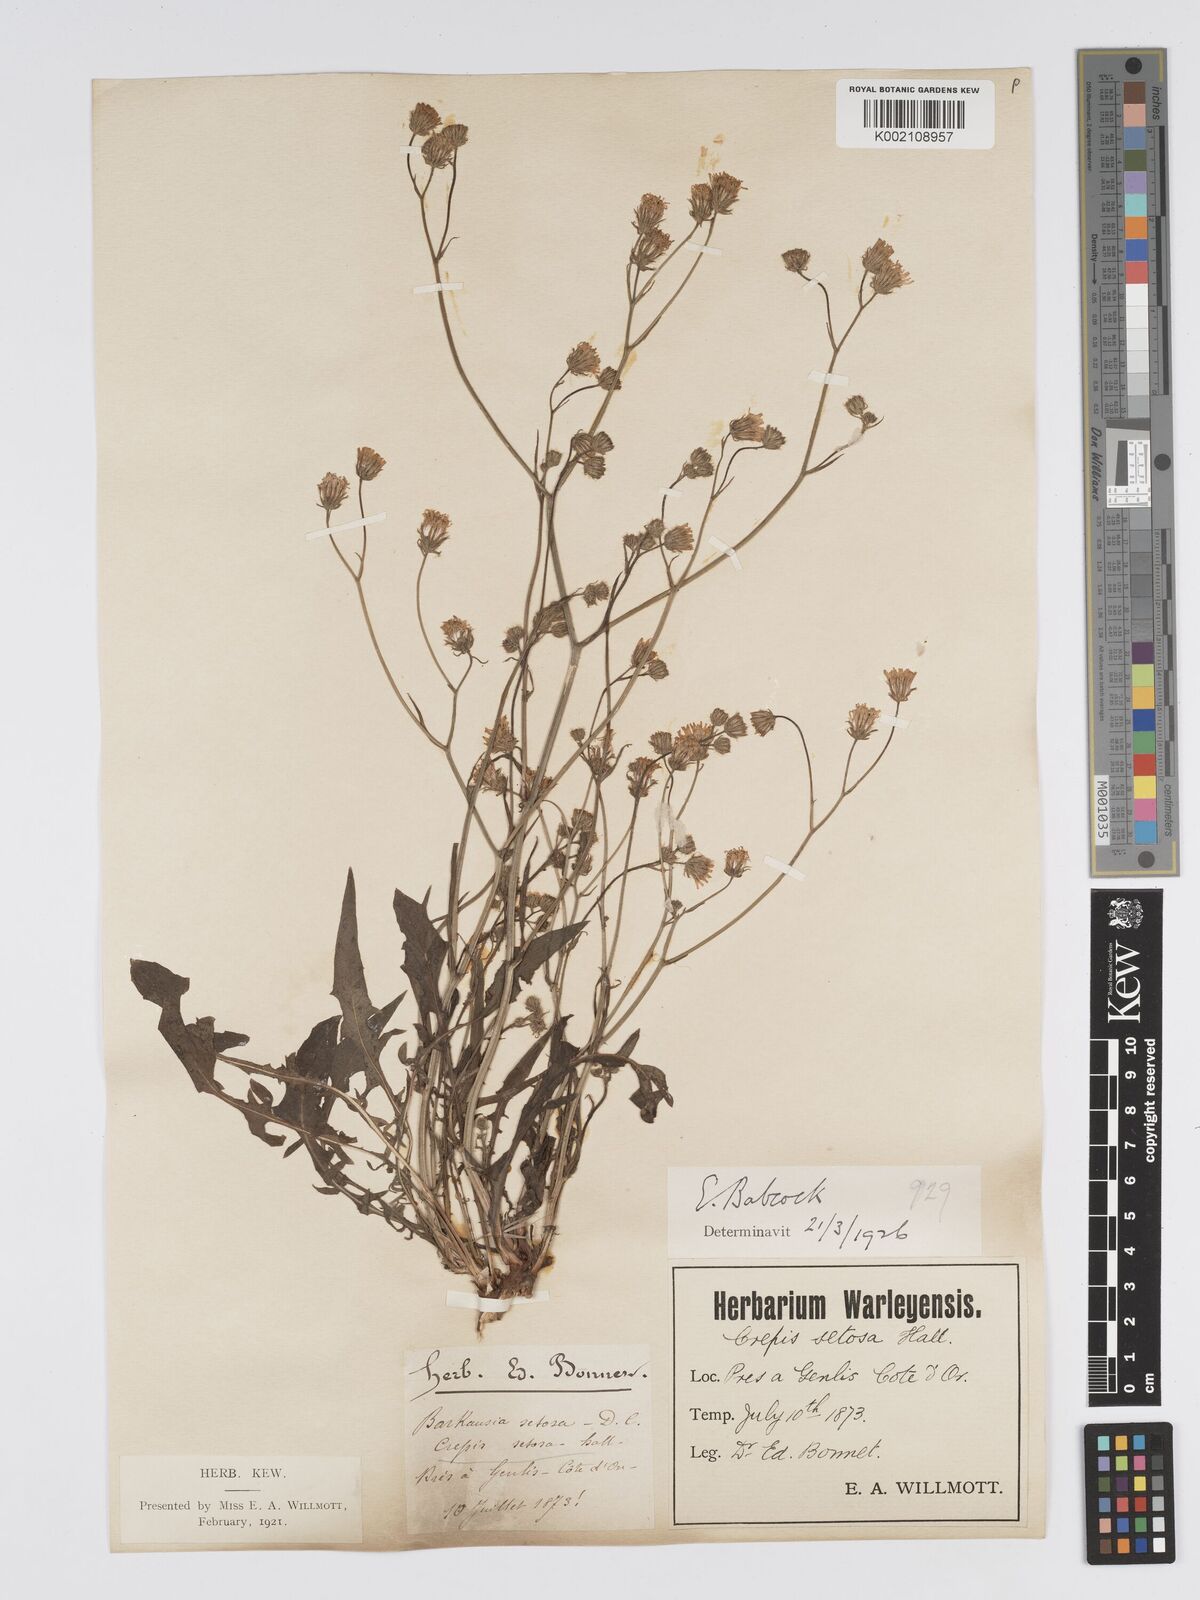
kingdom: Plantae
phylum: Tracheophyta
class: Magnoliopsida
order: Asterales
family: Asteraceae
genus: Crepis
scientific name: Crepis setosa
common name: Bristly hawk's-beard
